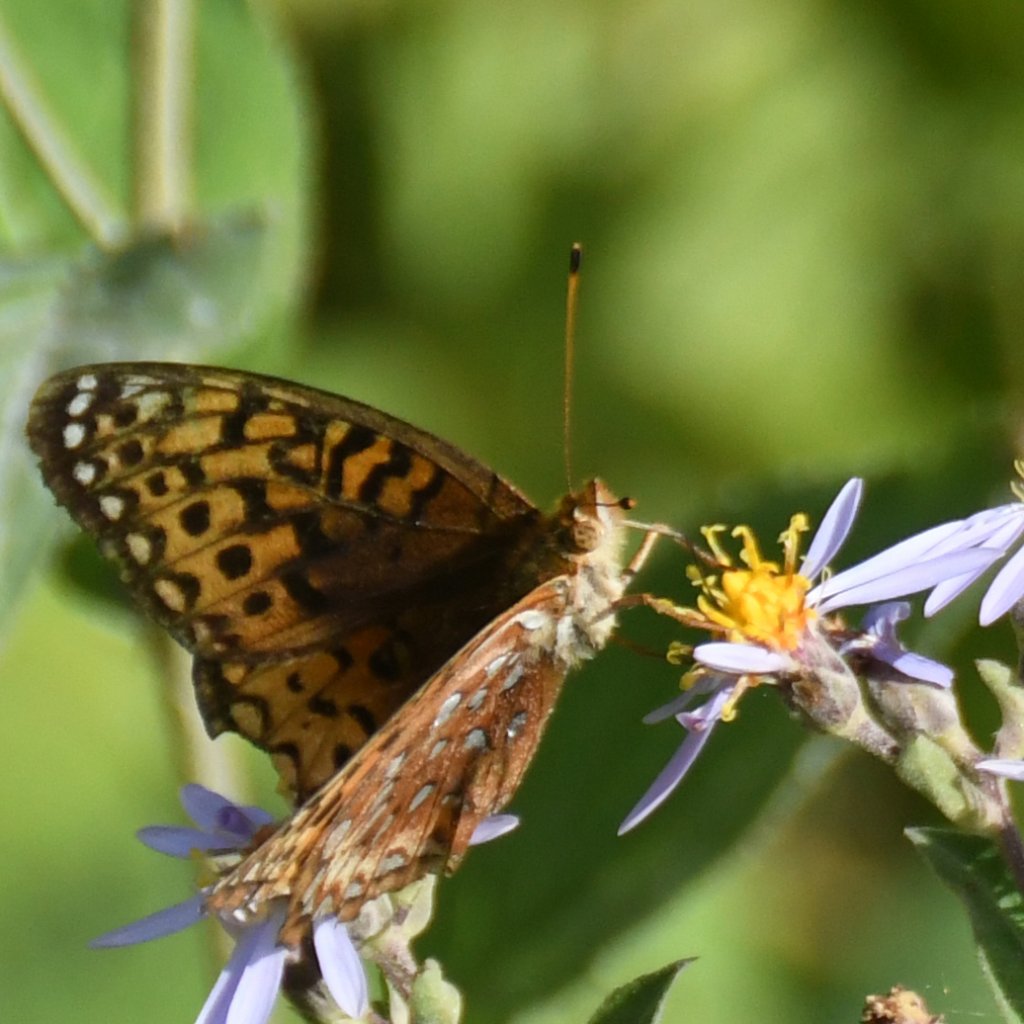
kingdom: Animalia
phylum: Arthropoda
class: Insecta
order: Lepidoptera
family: Nymphalidae
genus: Speyeria
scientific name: Speyeria aphrodite
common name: Aphrodite Fritillary
